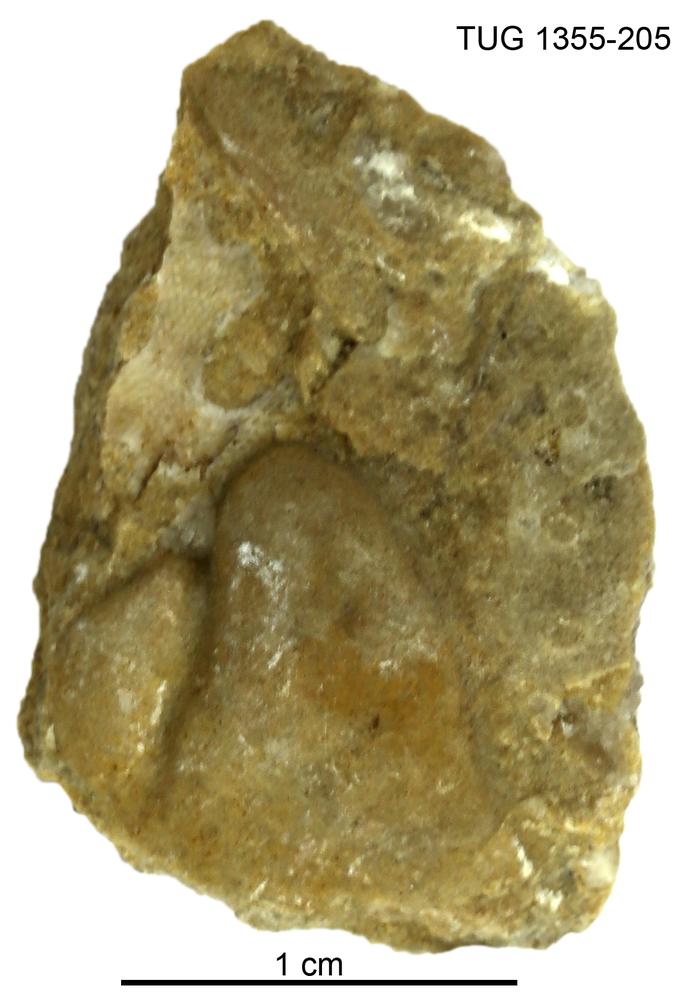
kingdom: Animalia
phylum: Arthropoda
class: Trilobita
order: Phacopida
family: Pterygometopidae
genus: Chasmops
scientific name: Chasmops macrourus
